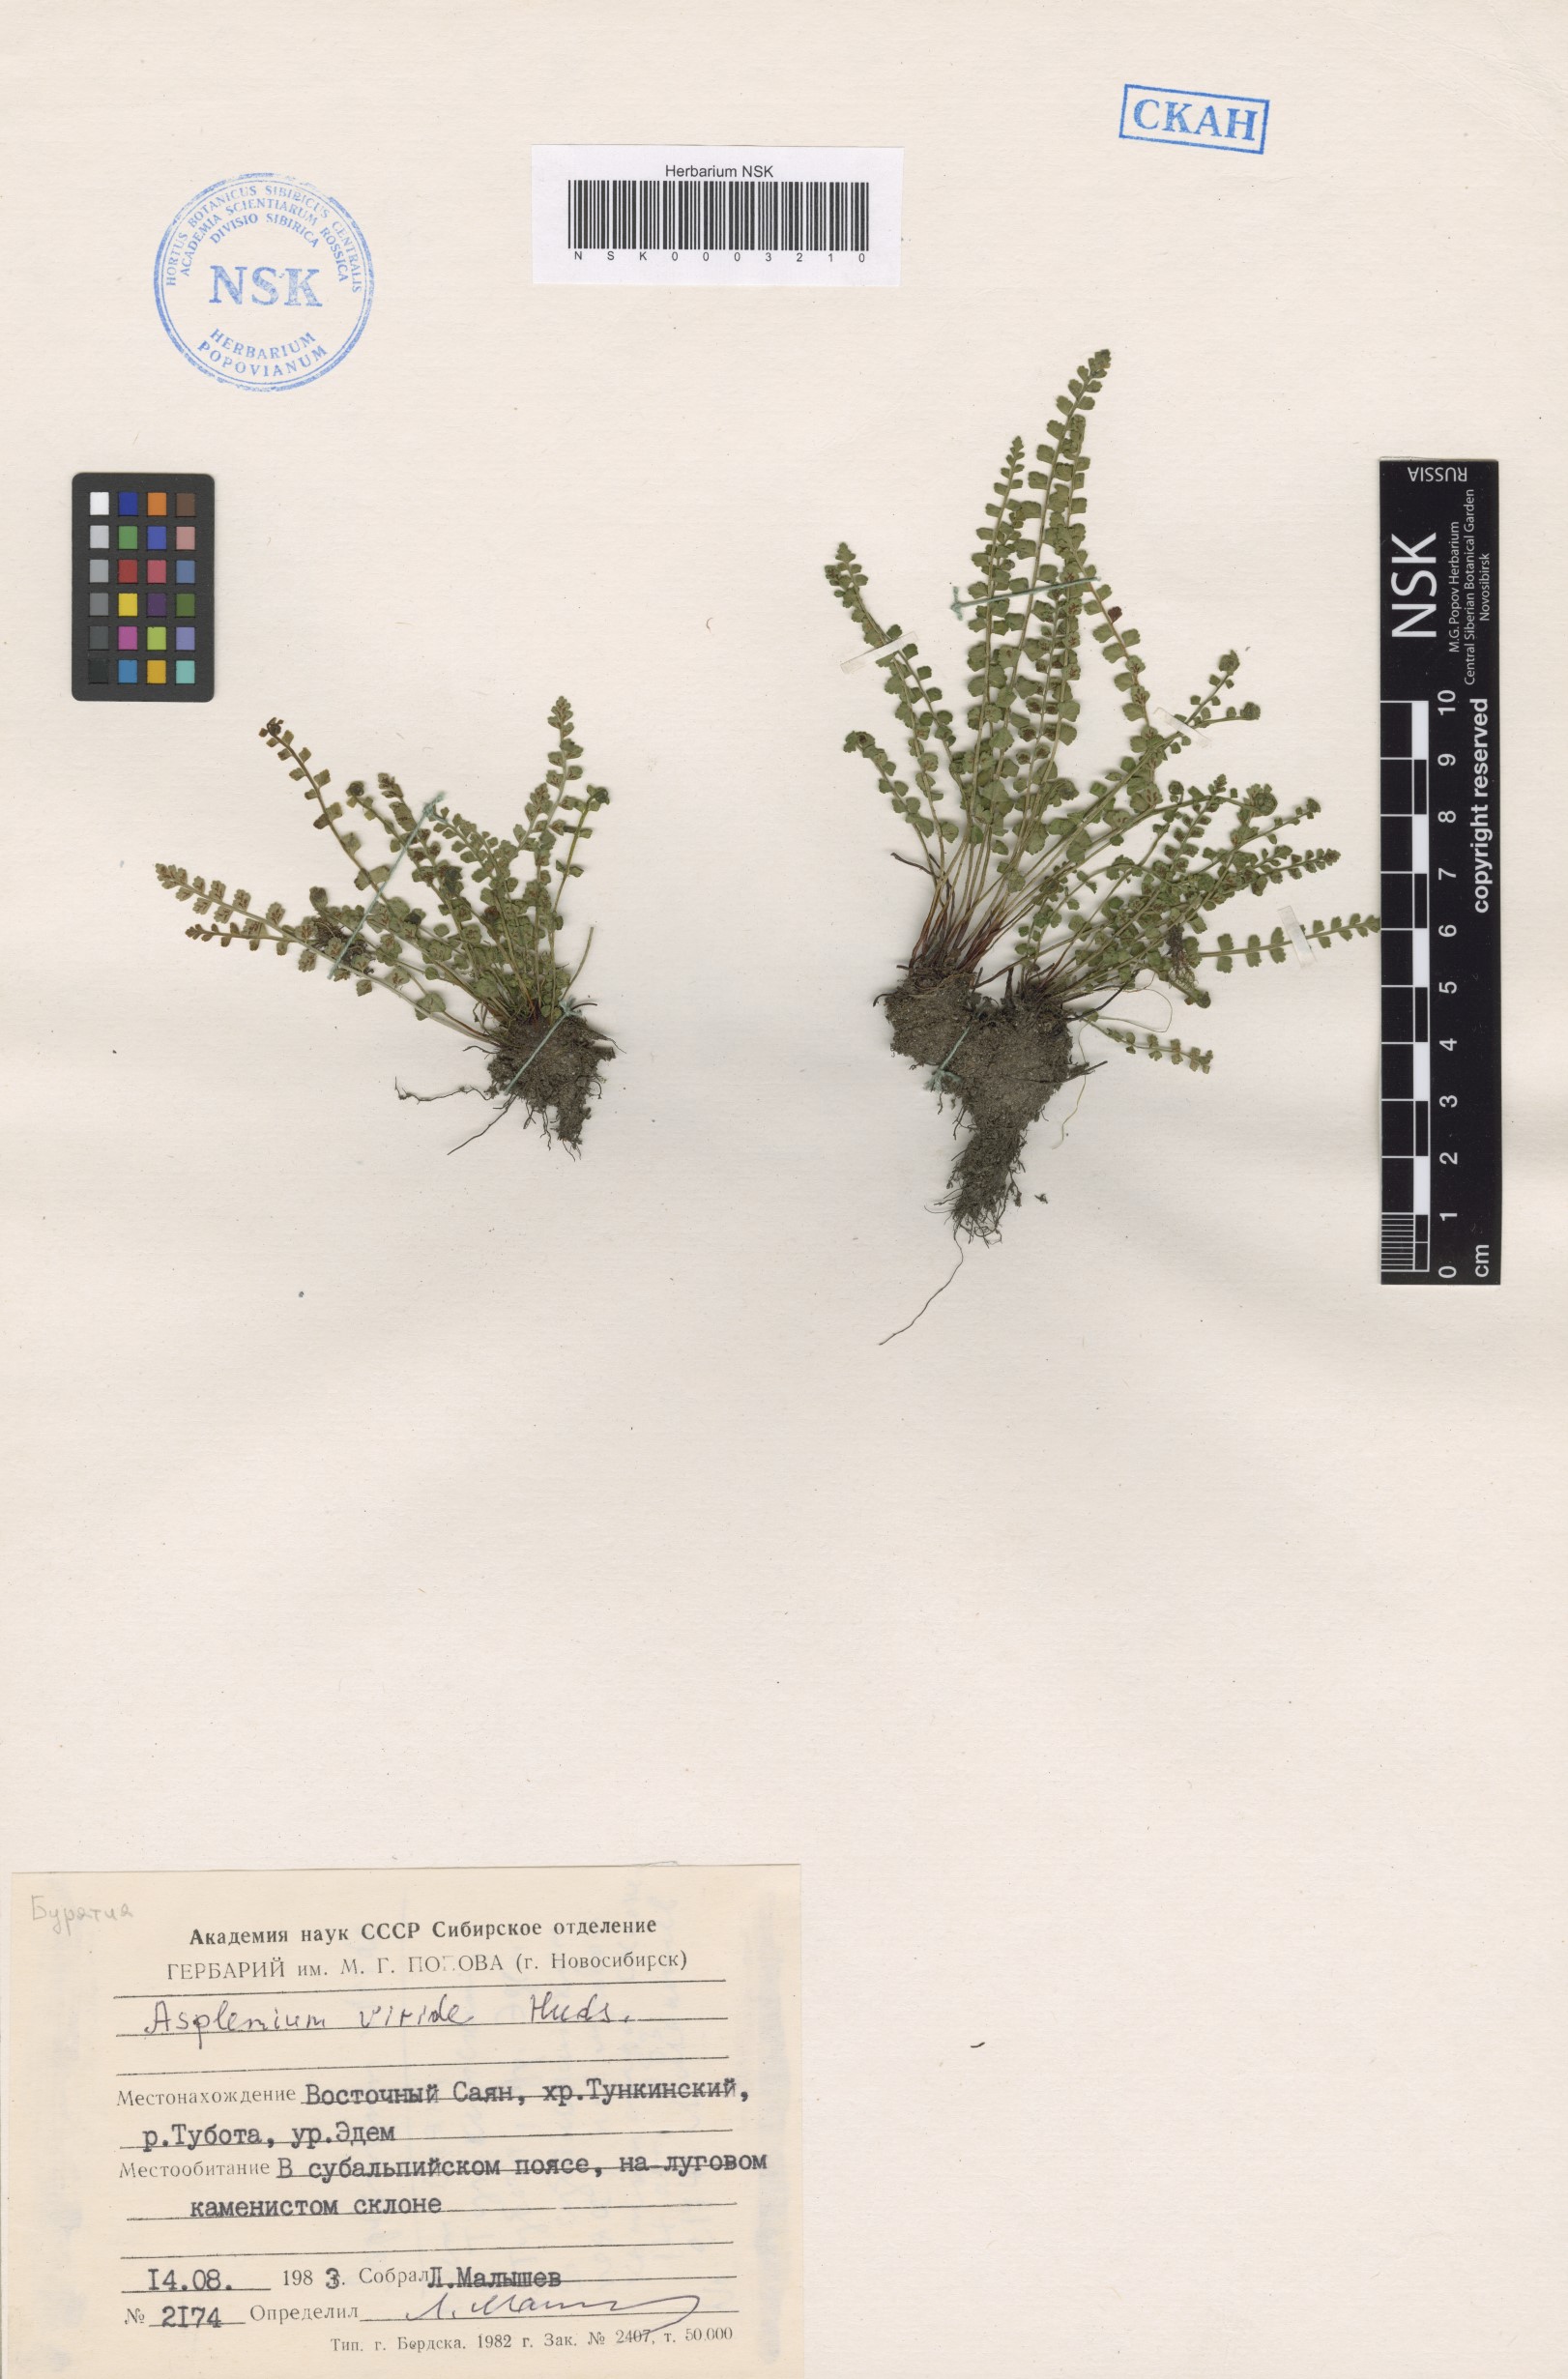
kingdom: Plantae
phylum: Tracheophyta
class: Polypodiopsida
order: Polypodiales
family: Aspleniaceae
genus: Asplenium
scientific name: Asplenium viride
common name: Green spleenwort
